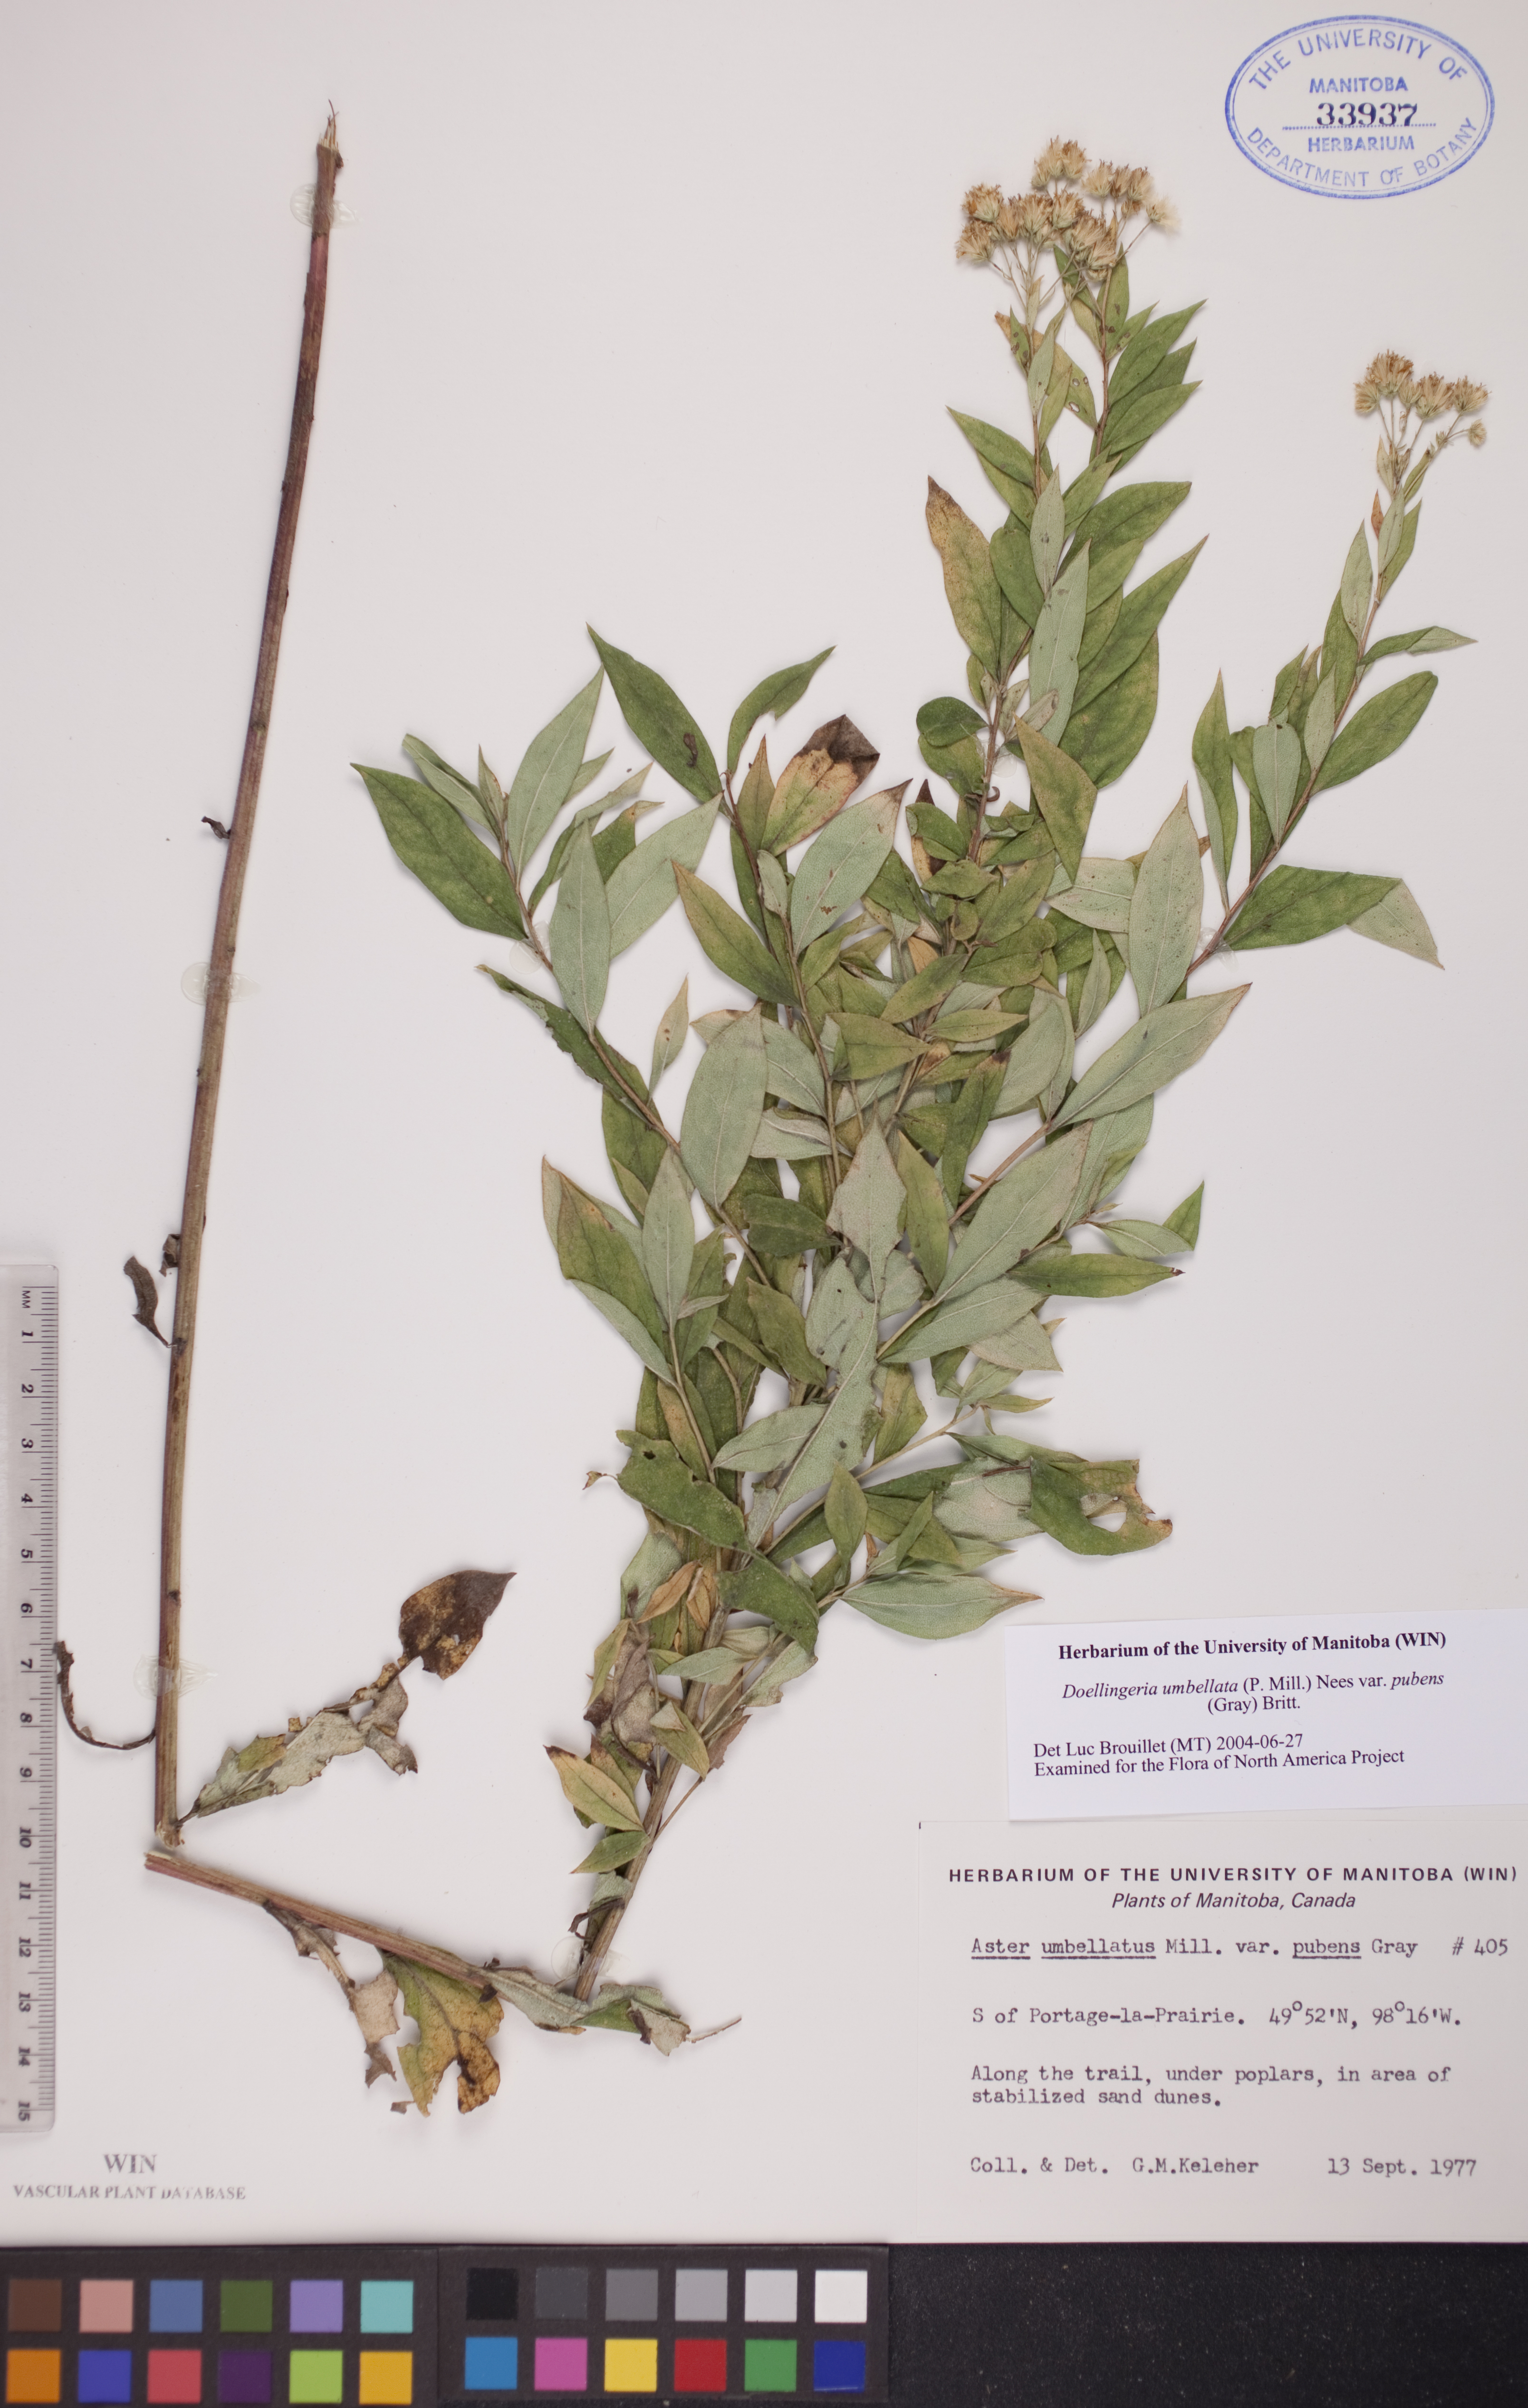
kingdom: Plantae
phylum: Tracheophyta
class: Magnoliopsida
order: Asterales
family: Asteraceae
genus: Doellingeria
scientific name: Doellingeria umbellata
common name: Flat-top white aster
